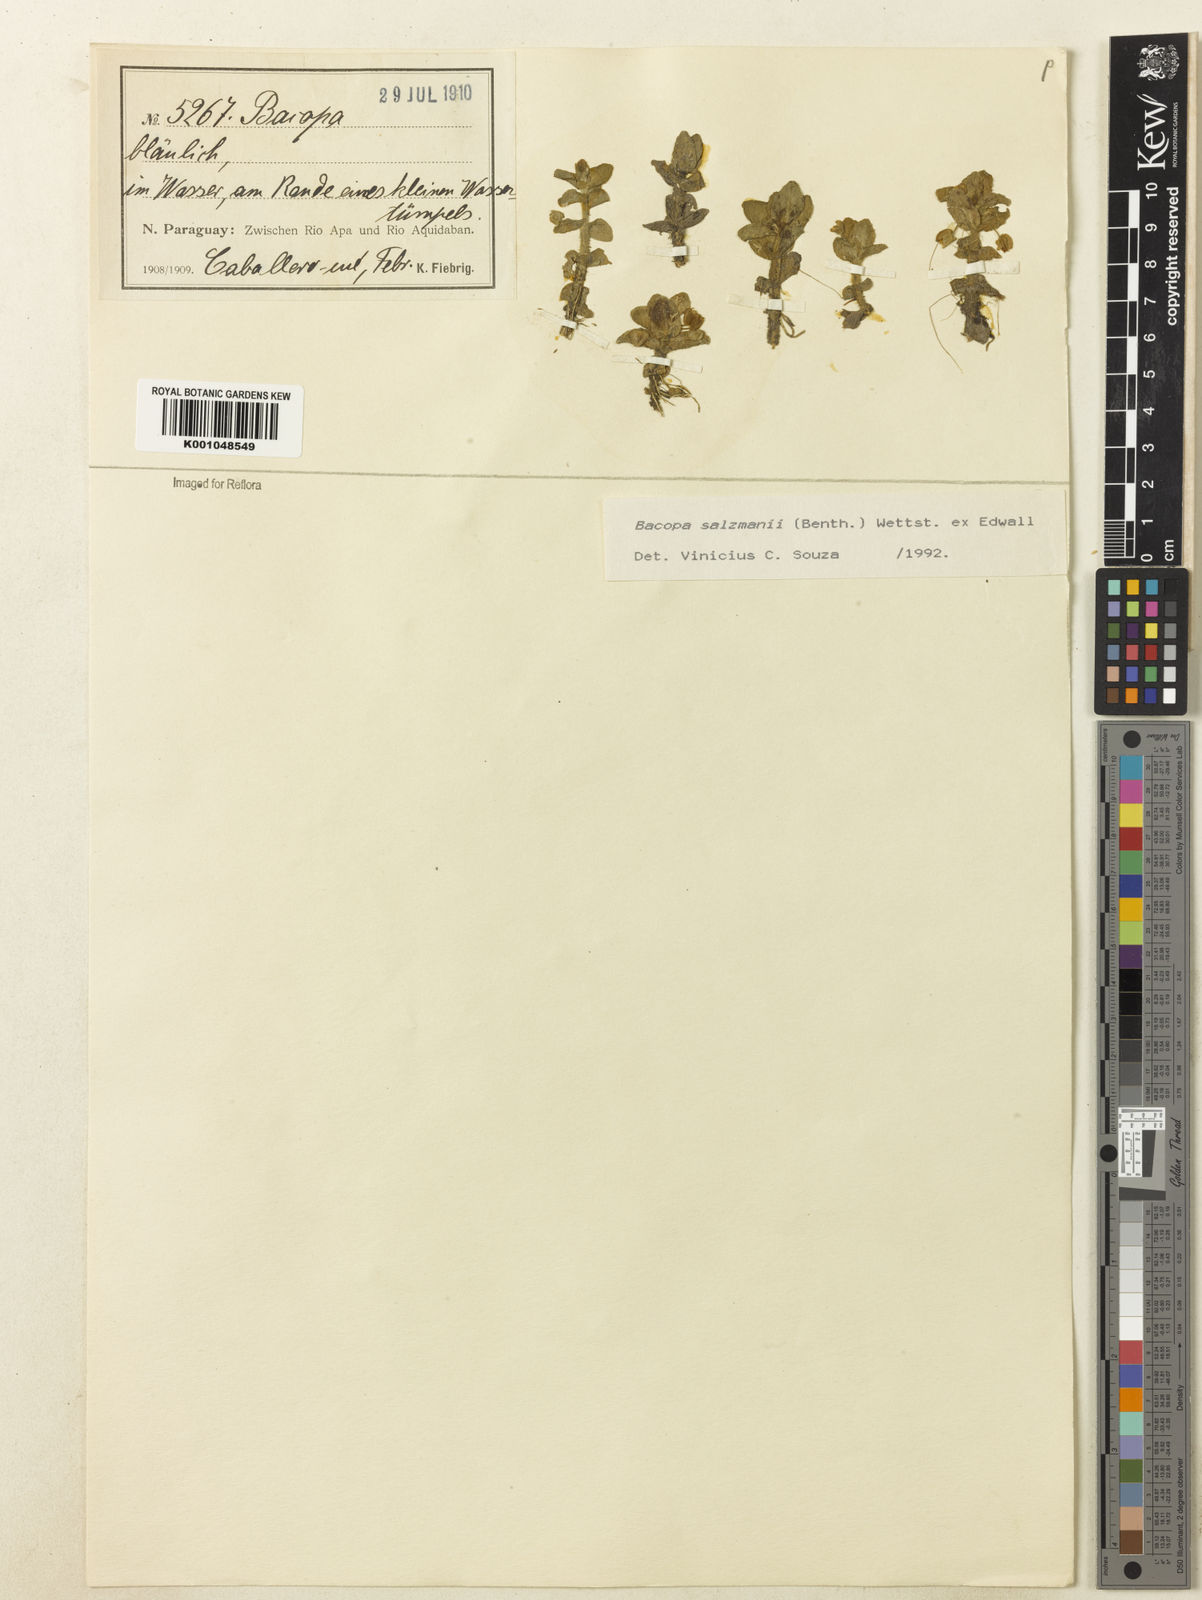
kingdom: Plantae
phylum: Tracheophyta
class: Magnoliopsida
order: Lamiales
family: Plantaginaceae
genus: Bacopa
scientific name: Bacopa salzmannii
